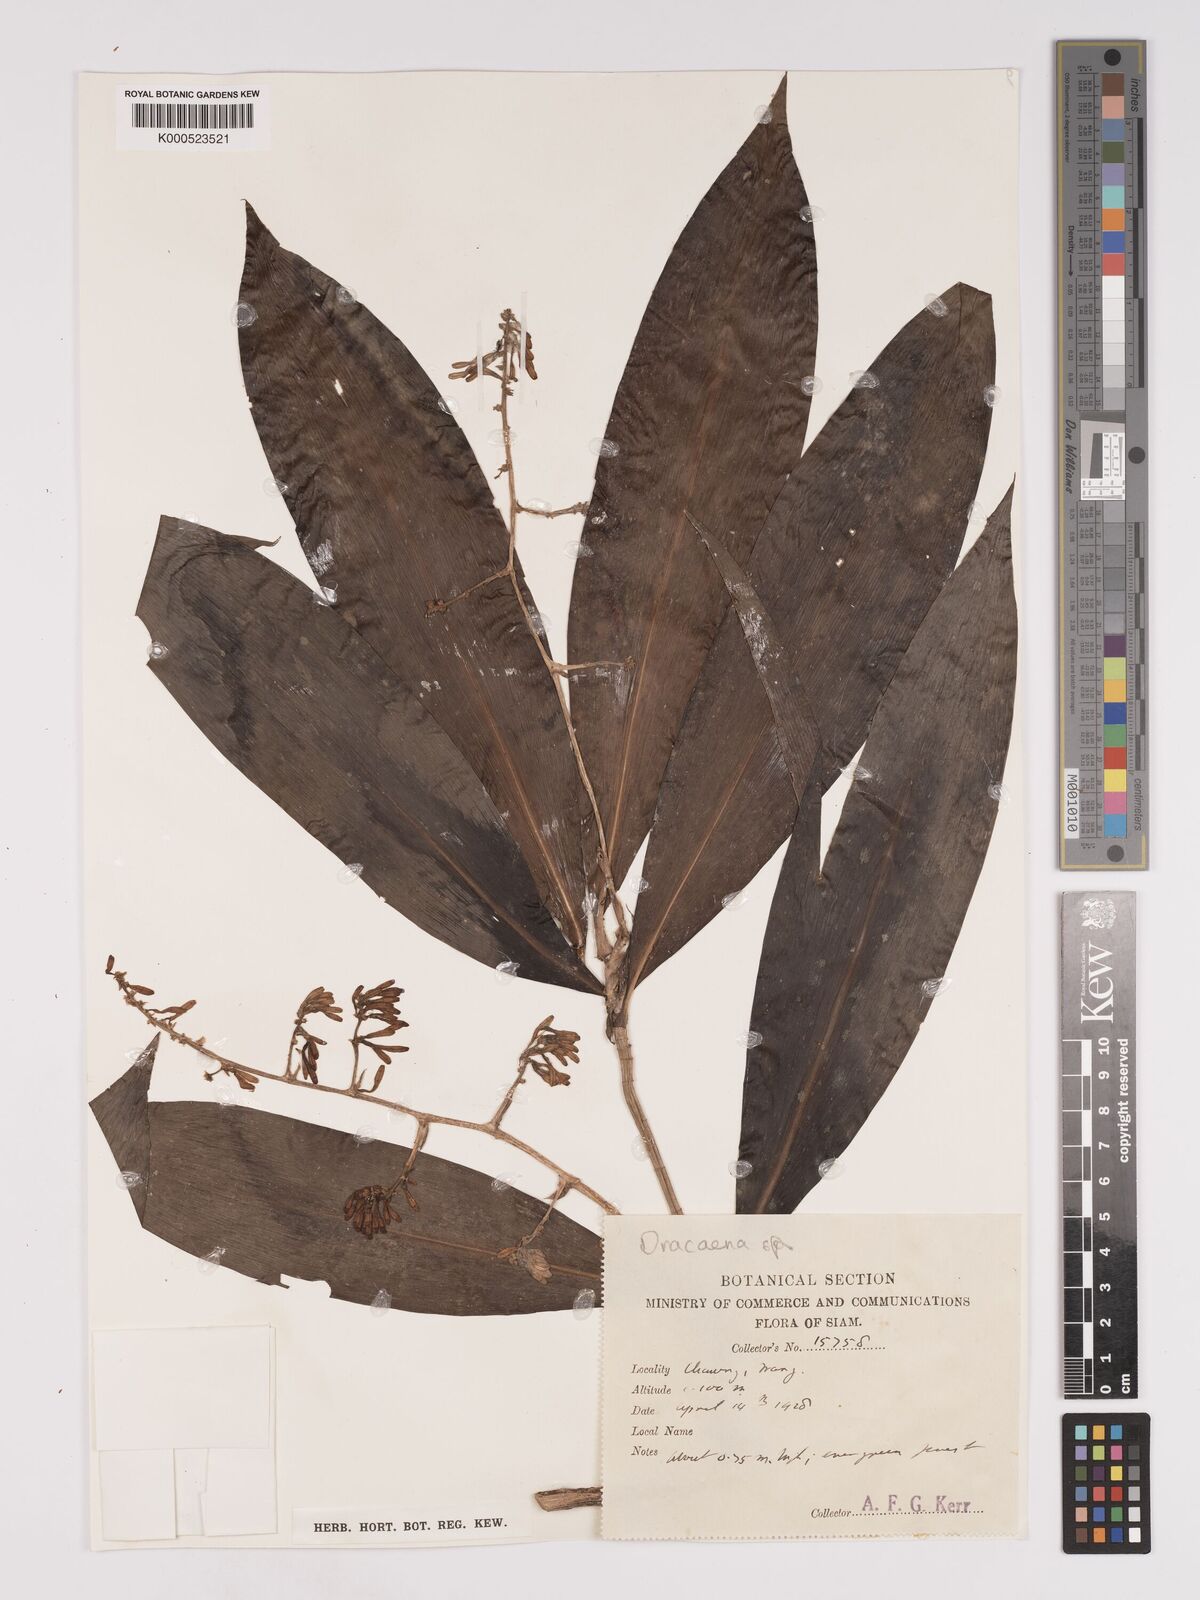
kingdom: Plantae
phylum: Tracheophyta
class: Liliopsida
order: Asparagales
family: Asparagaceae
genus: Dracaena
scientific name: Dracaena
